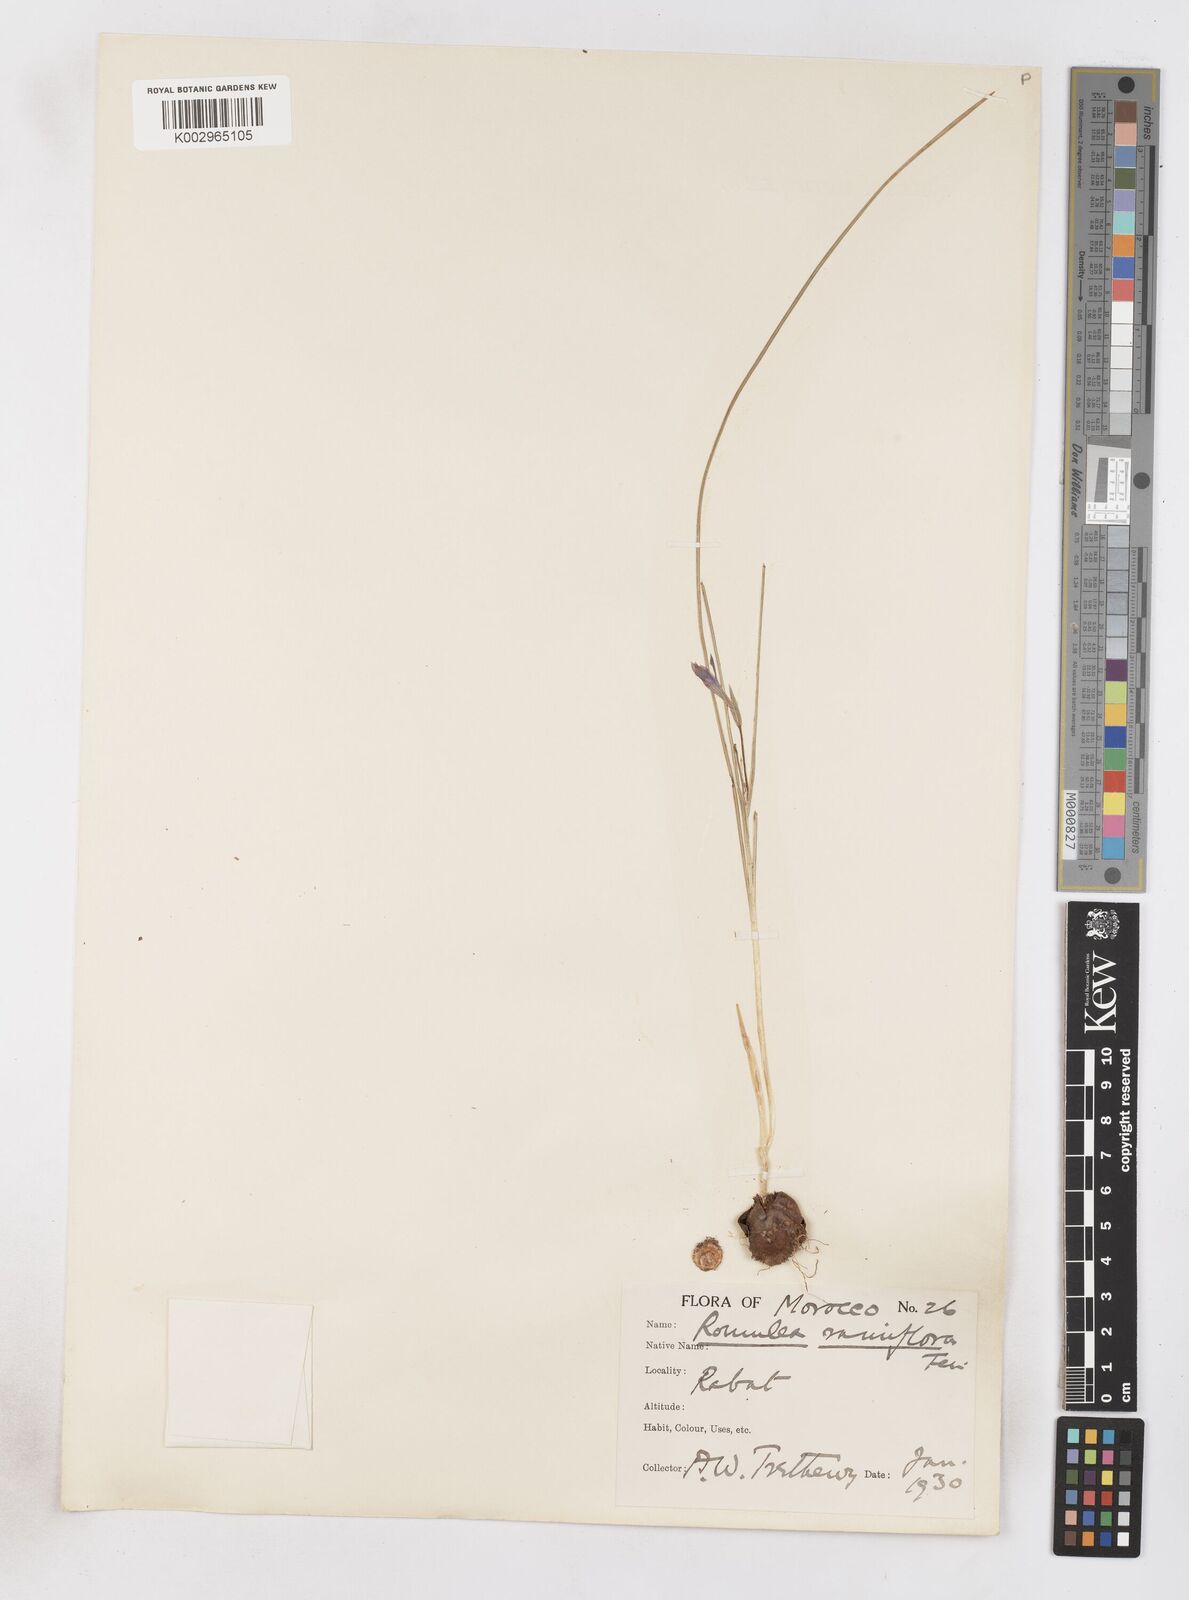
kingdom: Plantae
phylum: Tracheophyta
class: Liliopsida
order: Asparagales
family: Iridaceae
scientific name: Iridaceae
